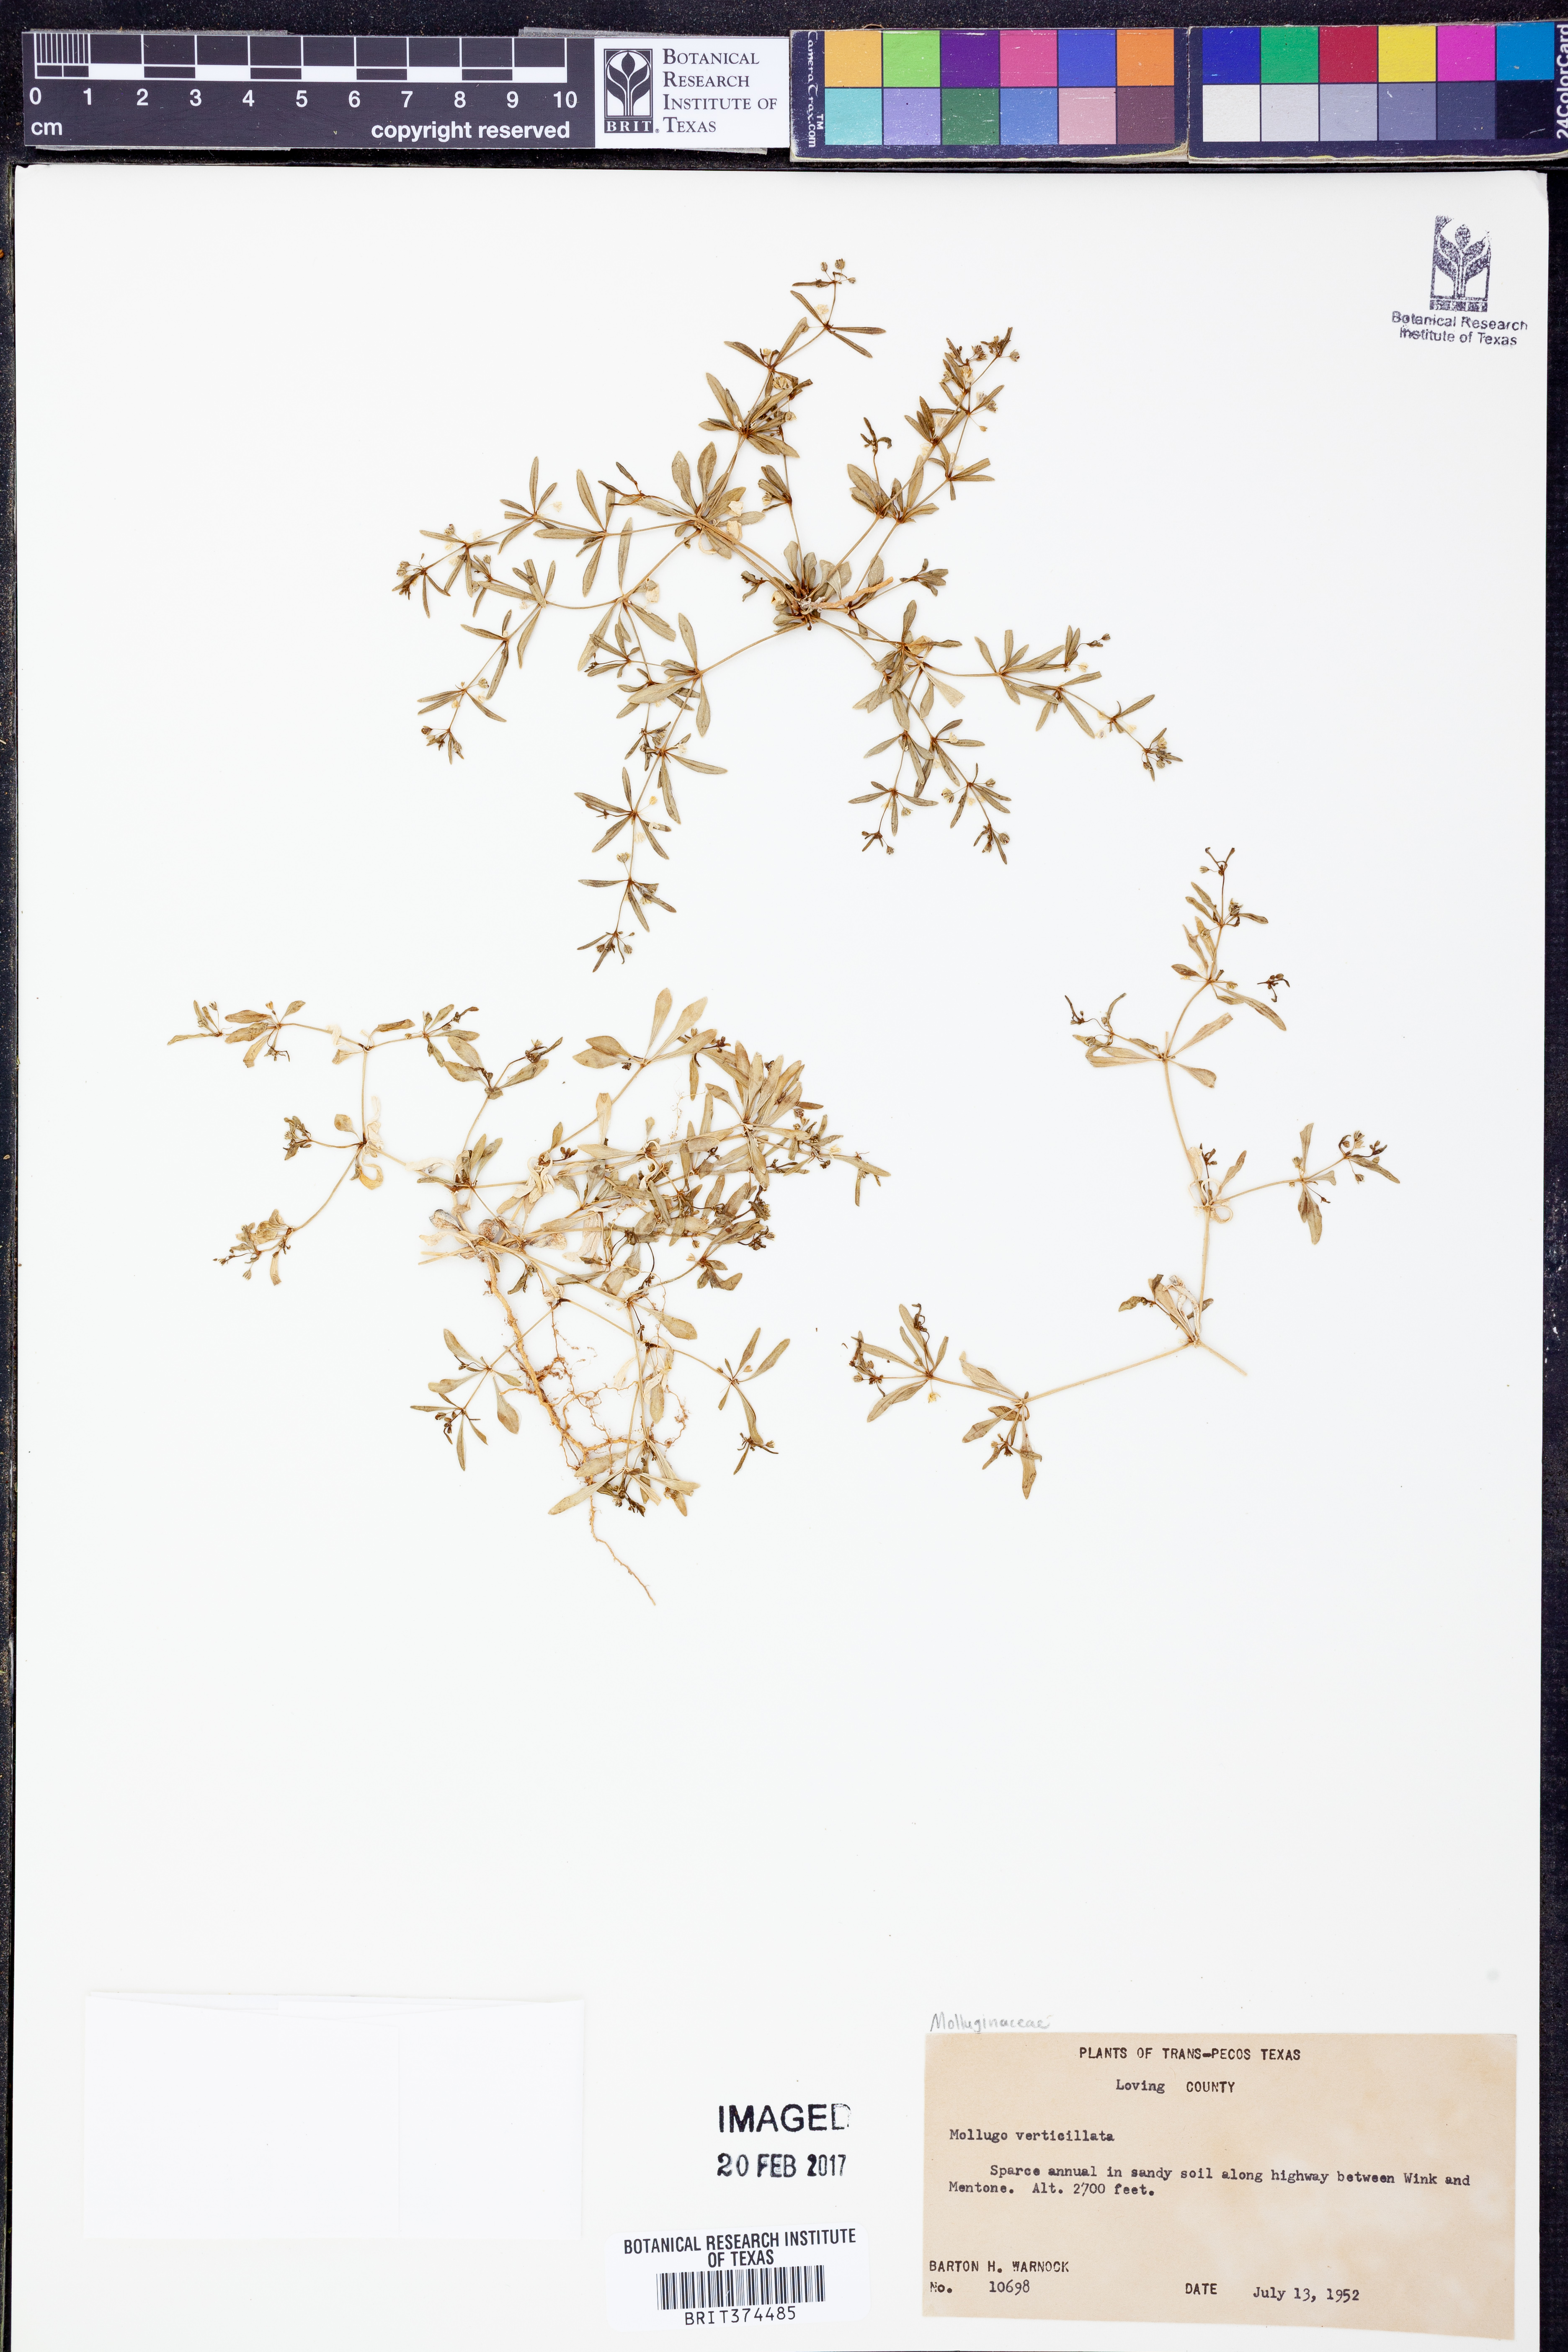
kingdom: Plantae
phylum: Tracheophyta
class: Magnoliopsida
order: Caryophyllales
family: Molluginaceae
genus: Mollugo
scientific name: Mollugo verticillata
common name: Green carpetweed
